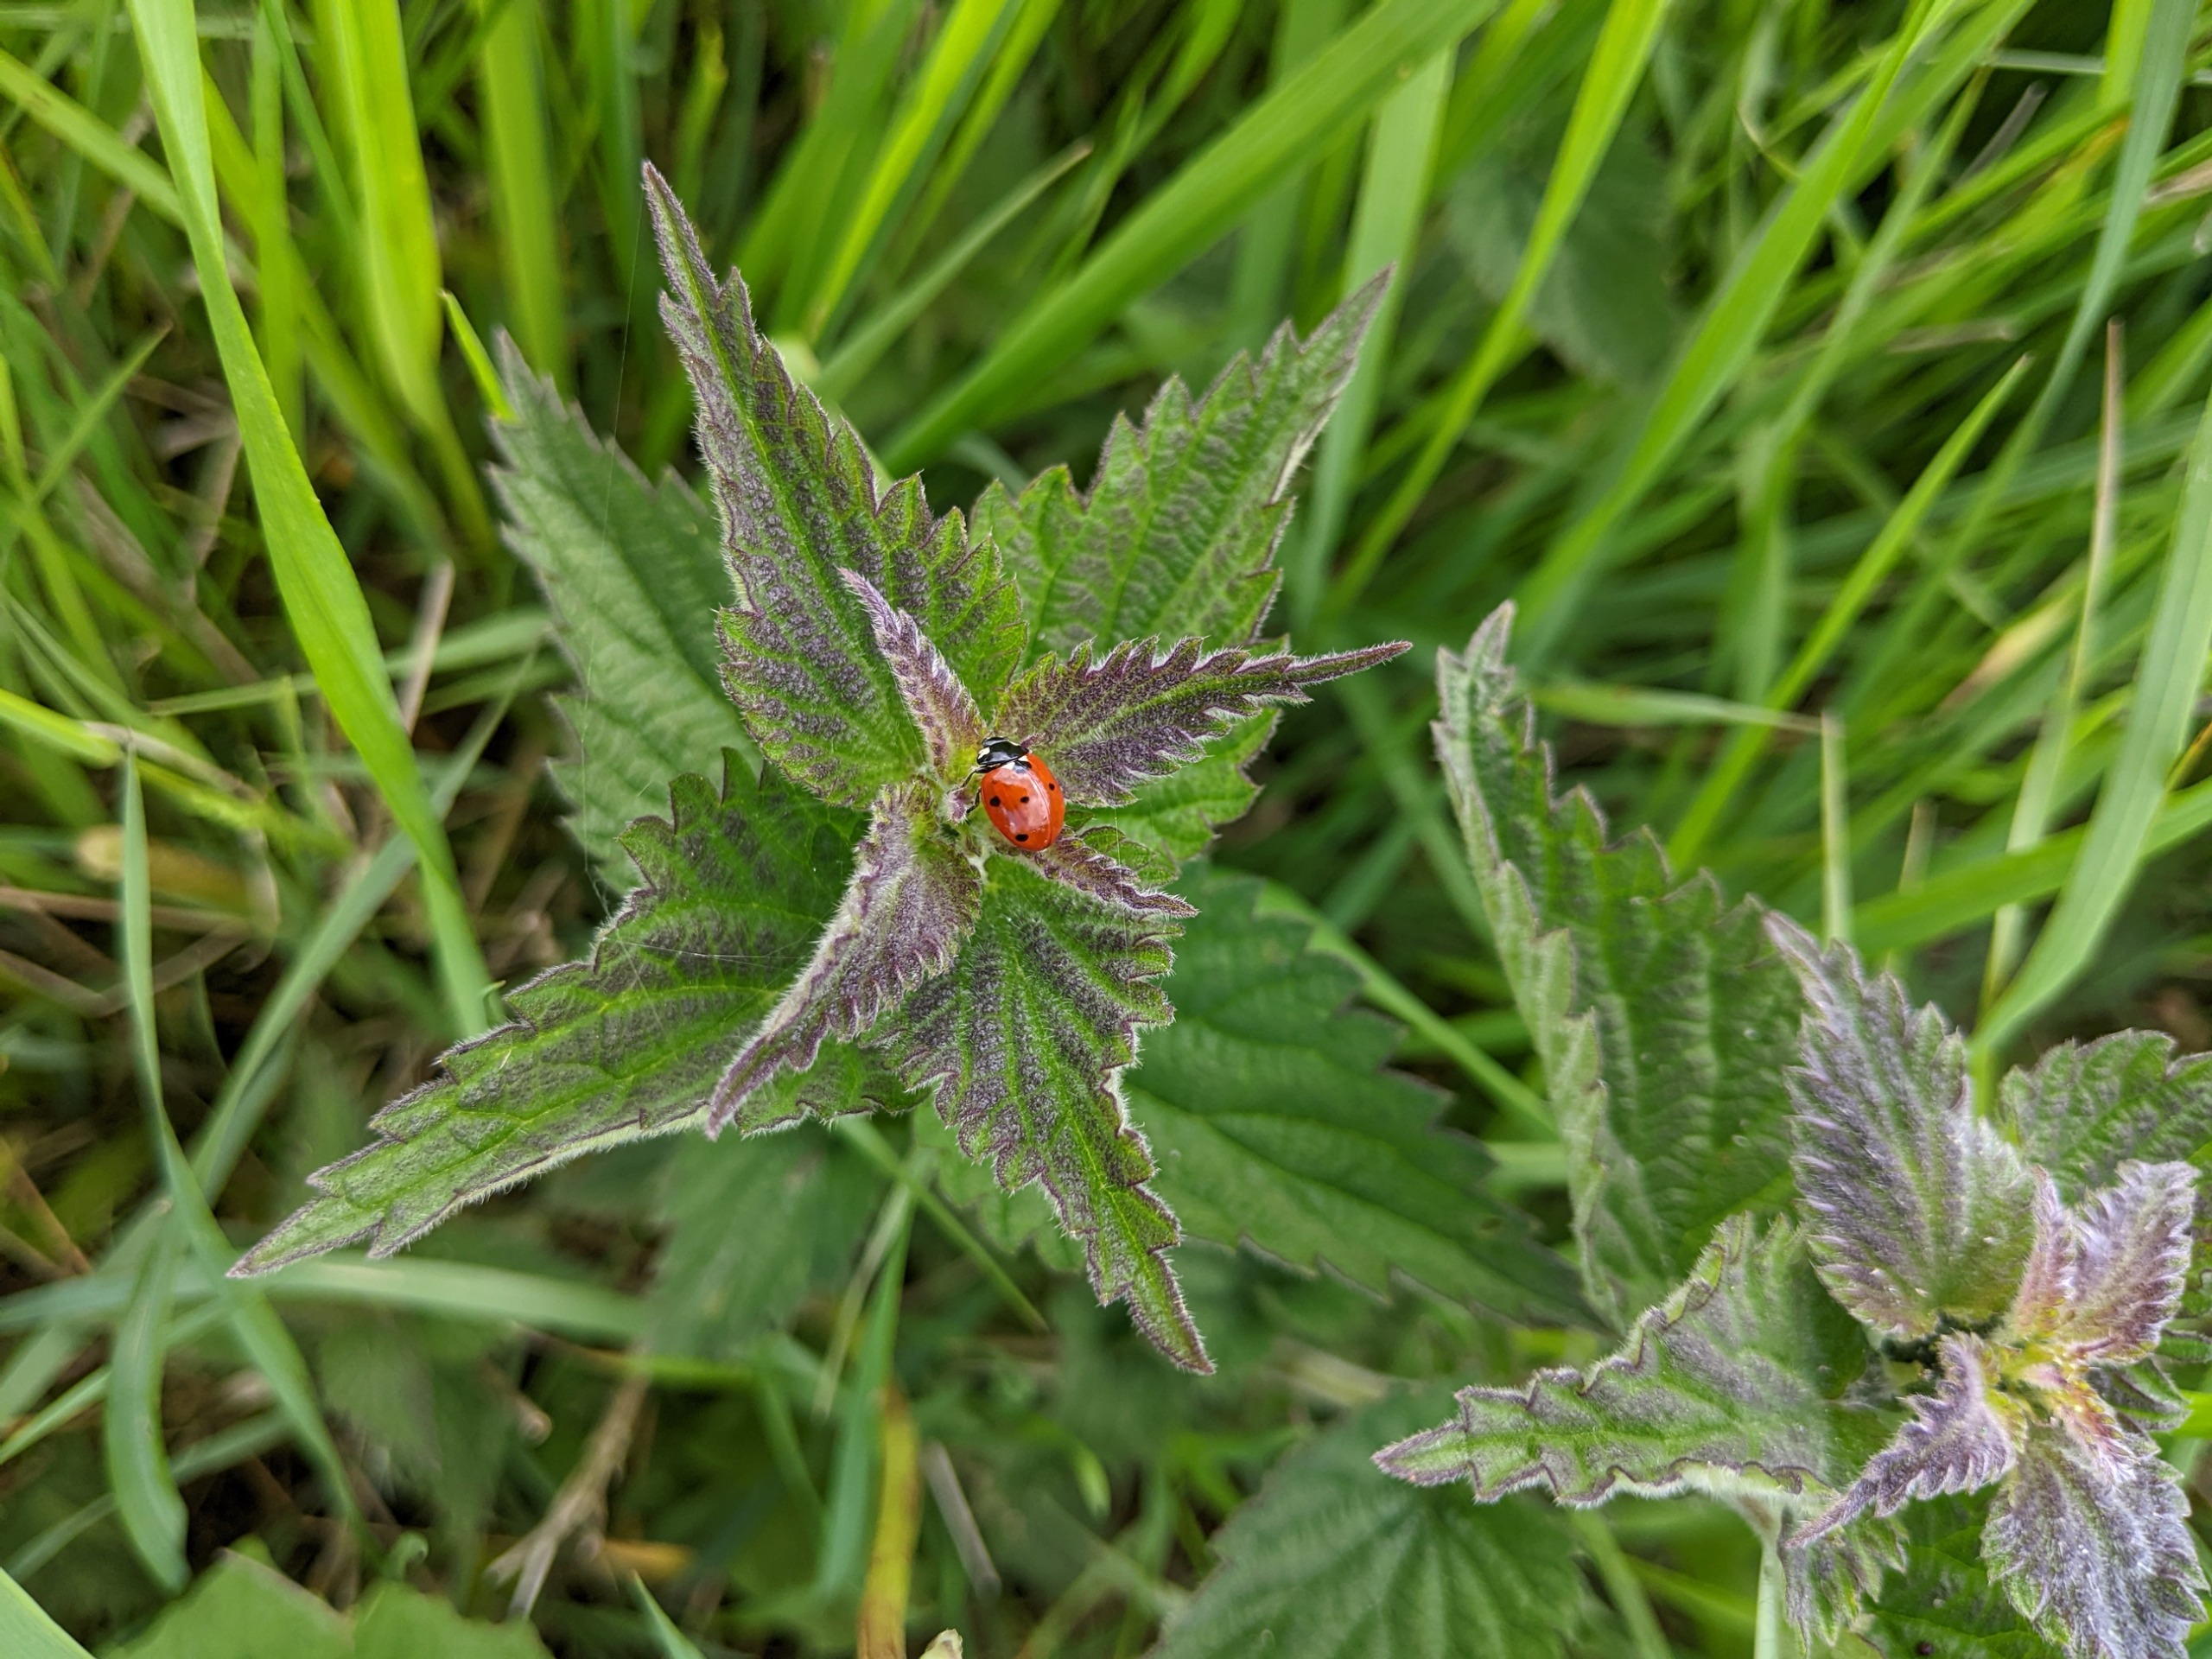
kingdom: Animalia
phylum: Arthropoda
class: Insecta
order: Coleoptera
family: Coccinellidae
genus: Coccinella
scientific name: Coccinella septempunctata
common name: Syvplettet mariehøne
